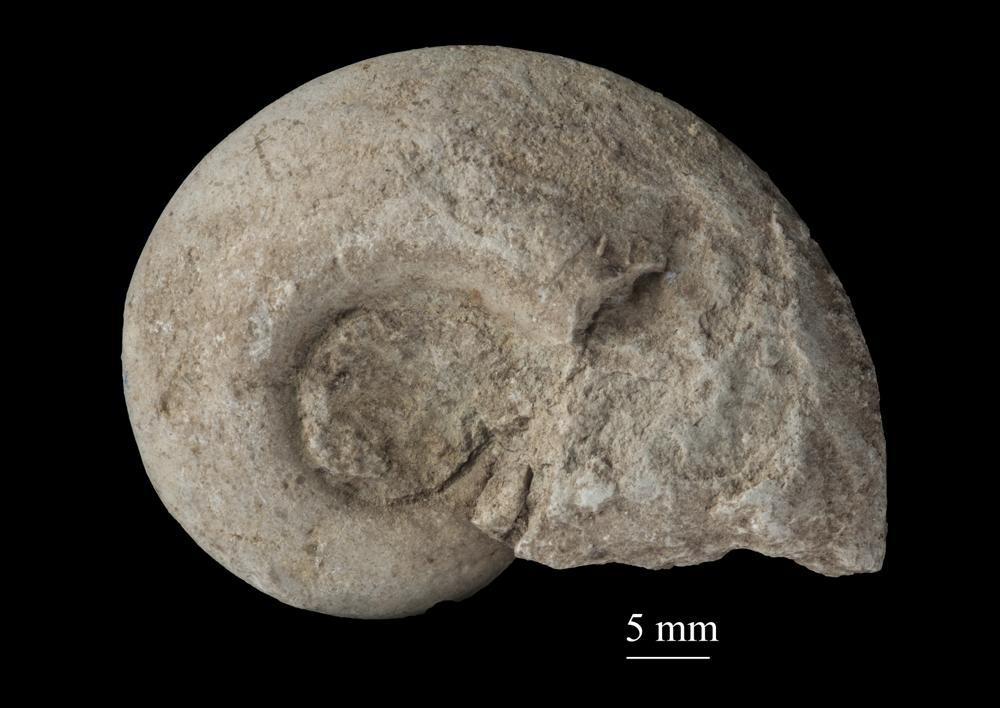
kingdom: Animalia
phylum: Mollusca
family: Macluritidae
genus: Maclurites
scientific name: Maclurites Maclurea neritoides
